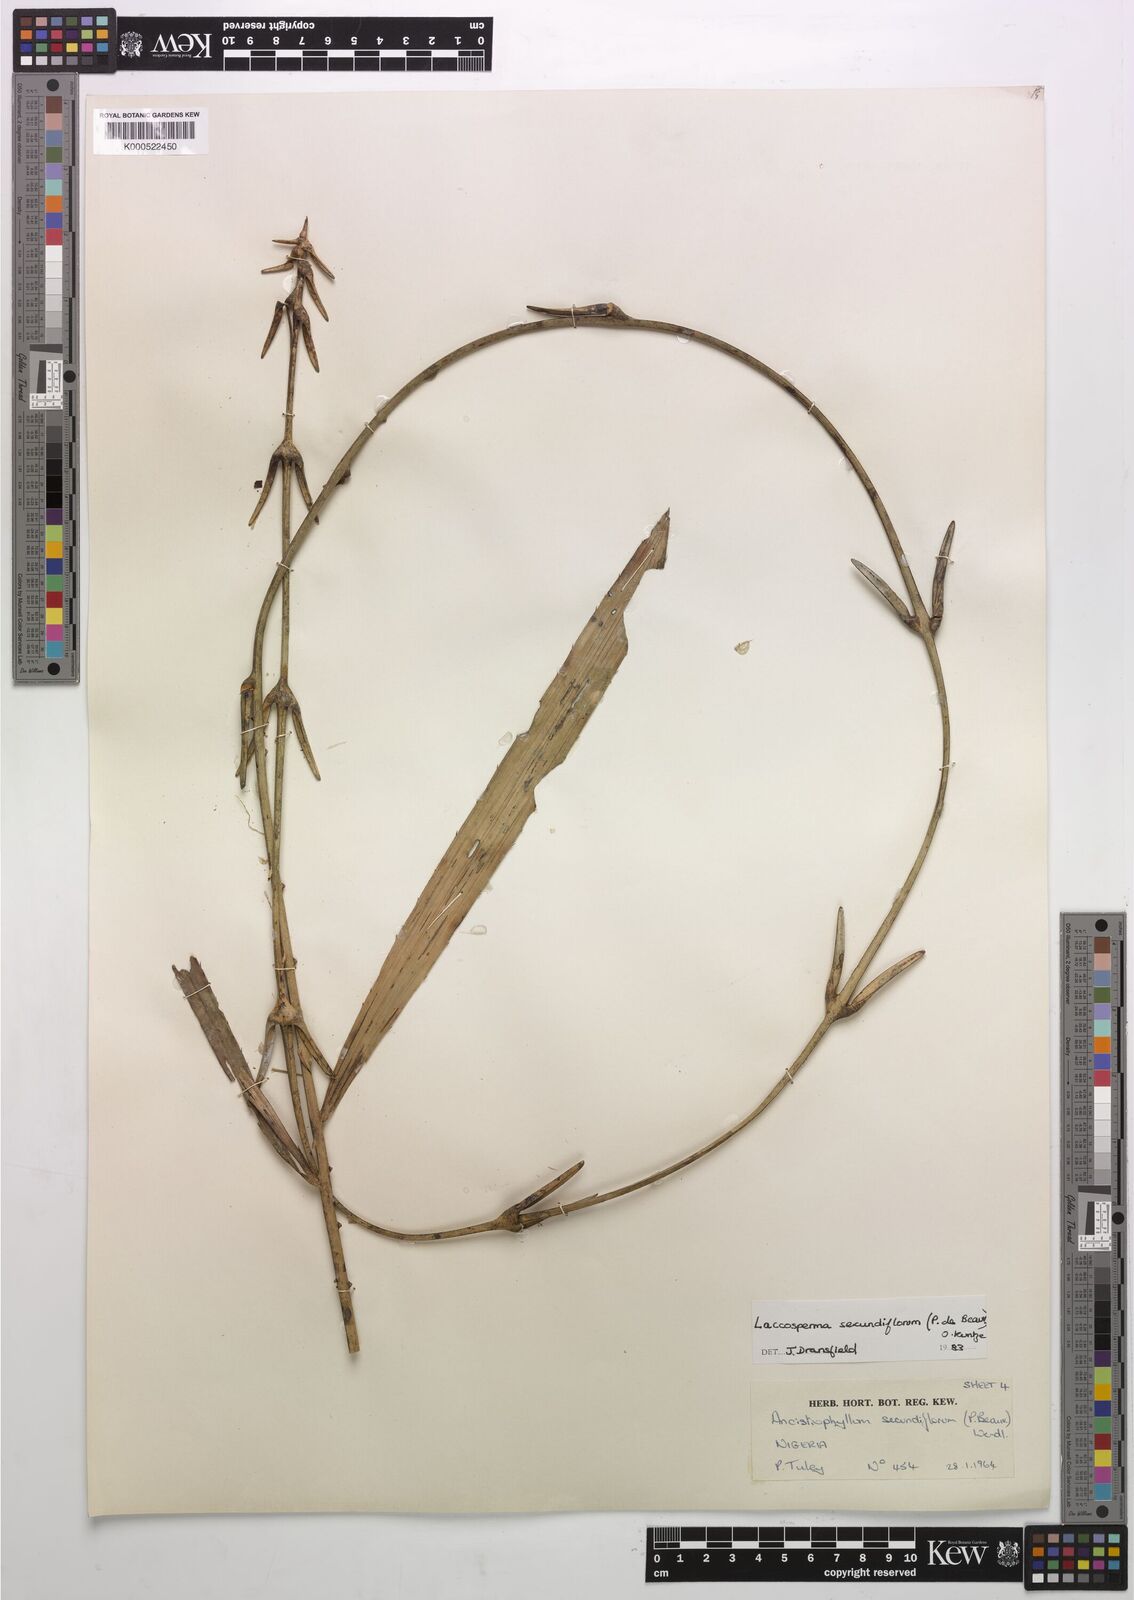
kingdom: Plantae
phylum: Tracheophyta
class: Liliopsida
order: Arecales
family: Arecaceae
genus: Laccosperma
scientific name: Laccosperma secundiflorum
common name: Rattan
